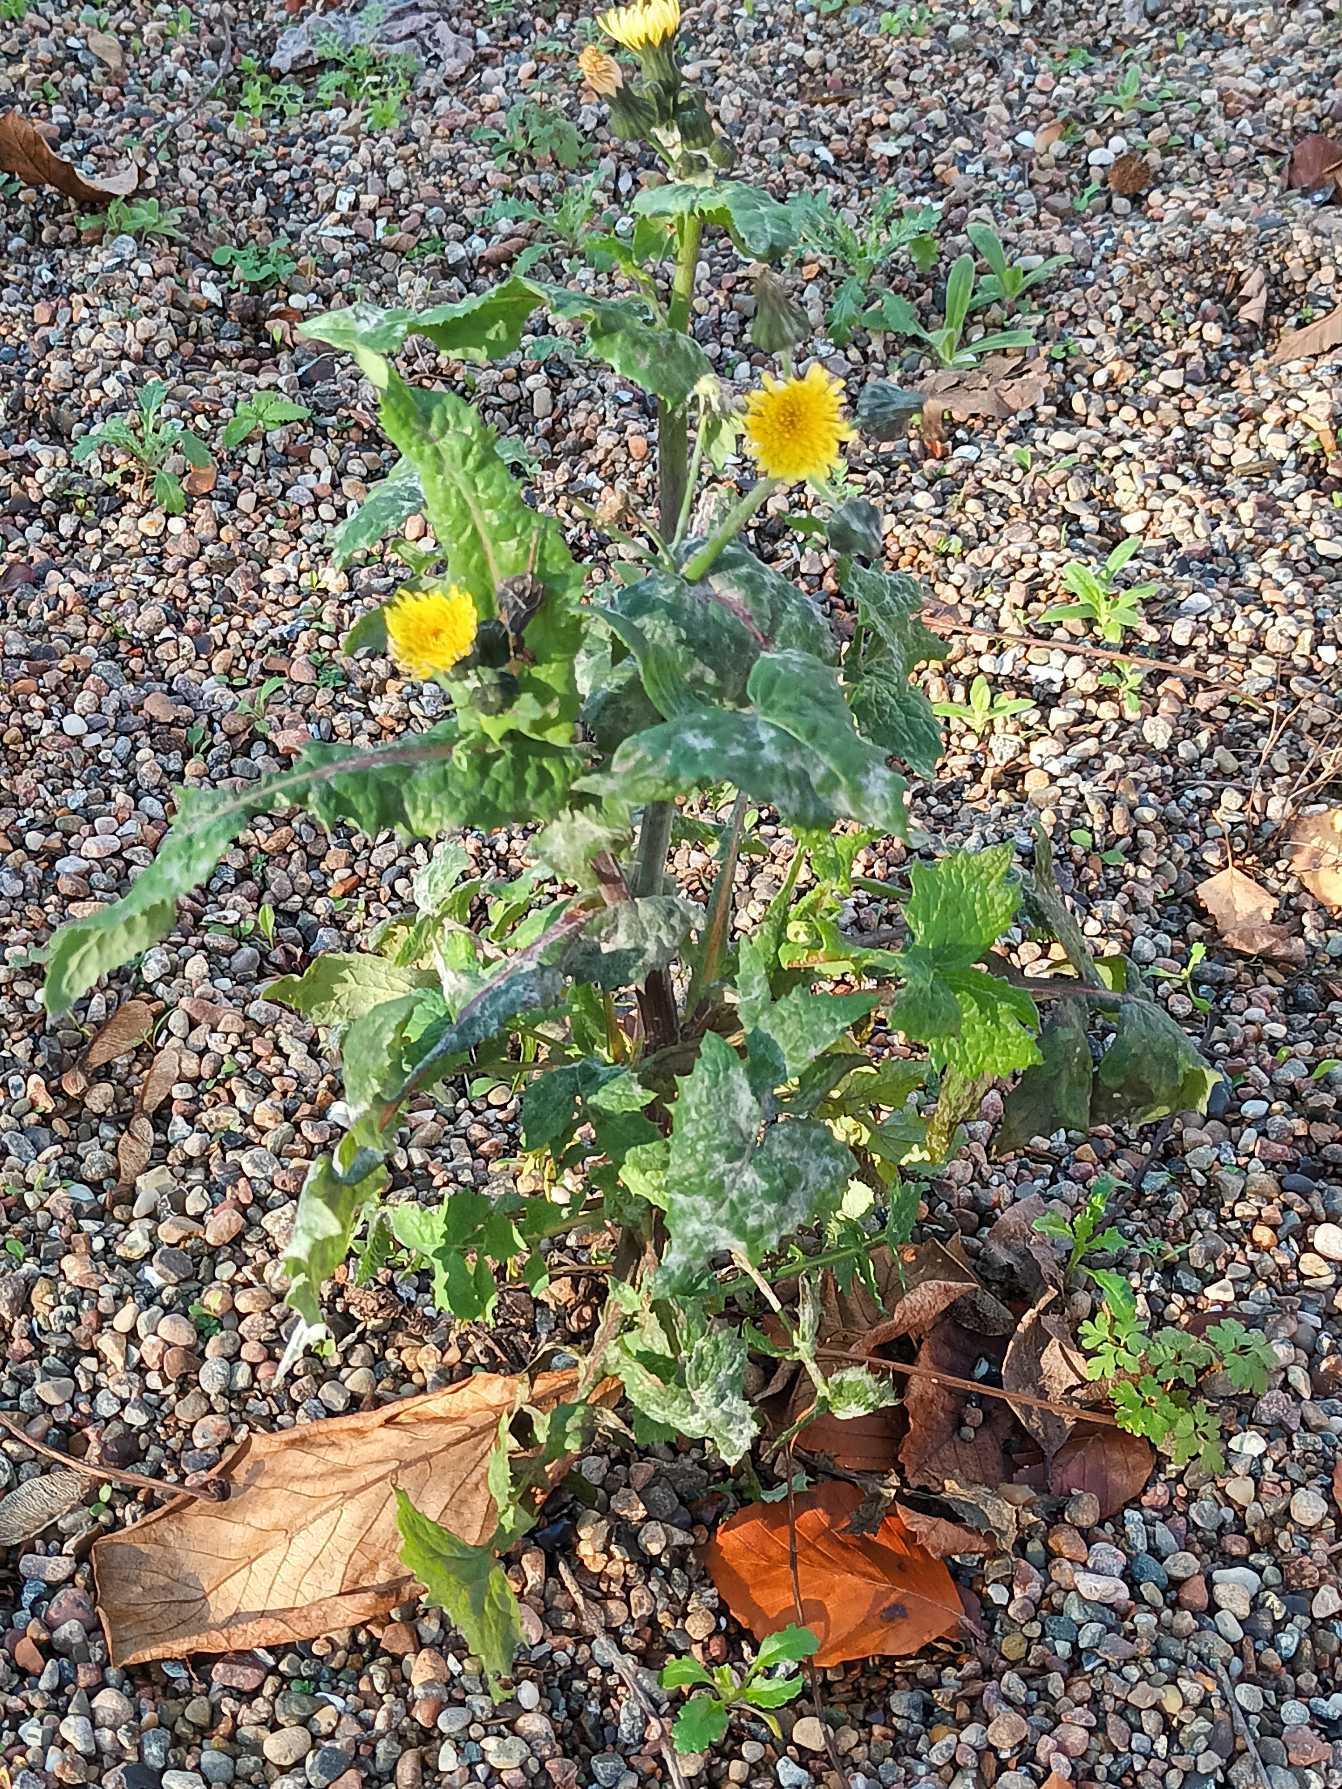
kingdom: Plantae
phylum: Tracheophyta
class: Magnoliopsida
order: Asterales
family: Asteraceae
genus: Sonchus
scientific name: Sonchus oleraceus
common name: Almindelig svinemælk
